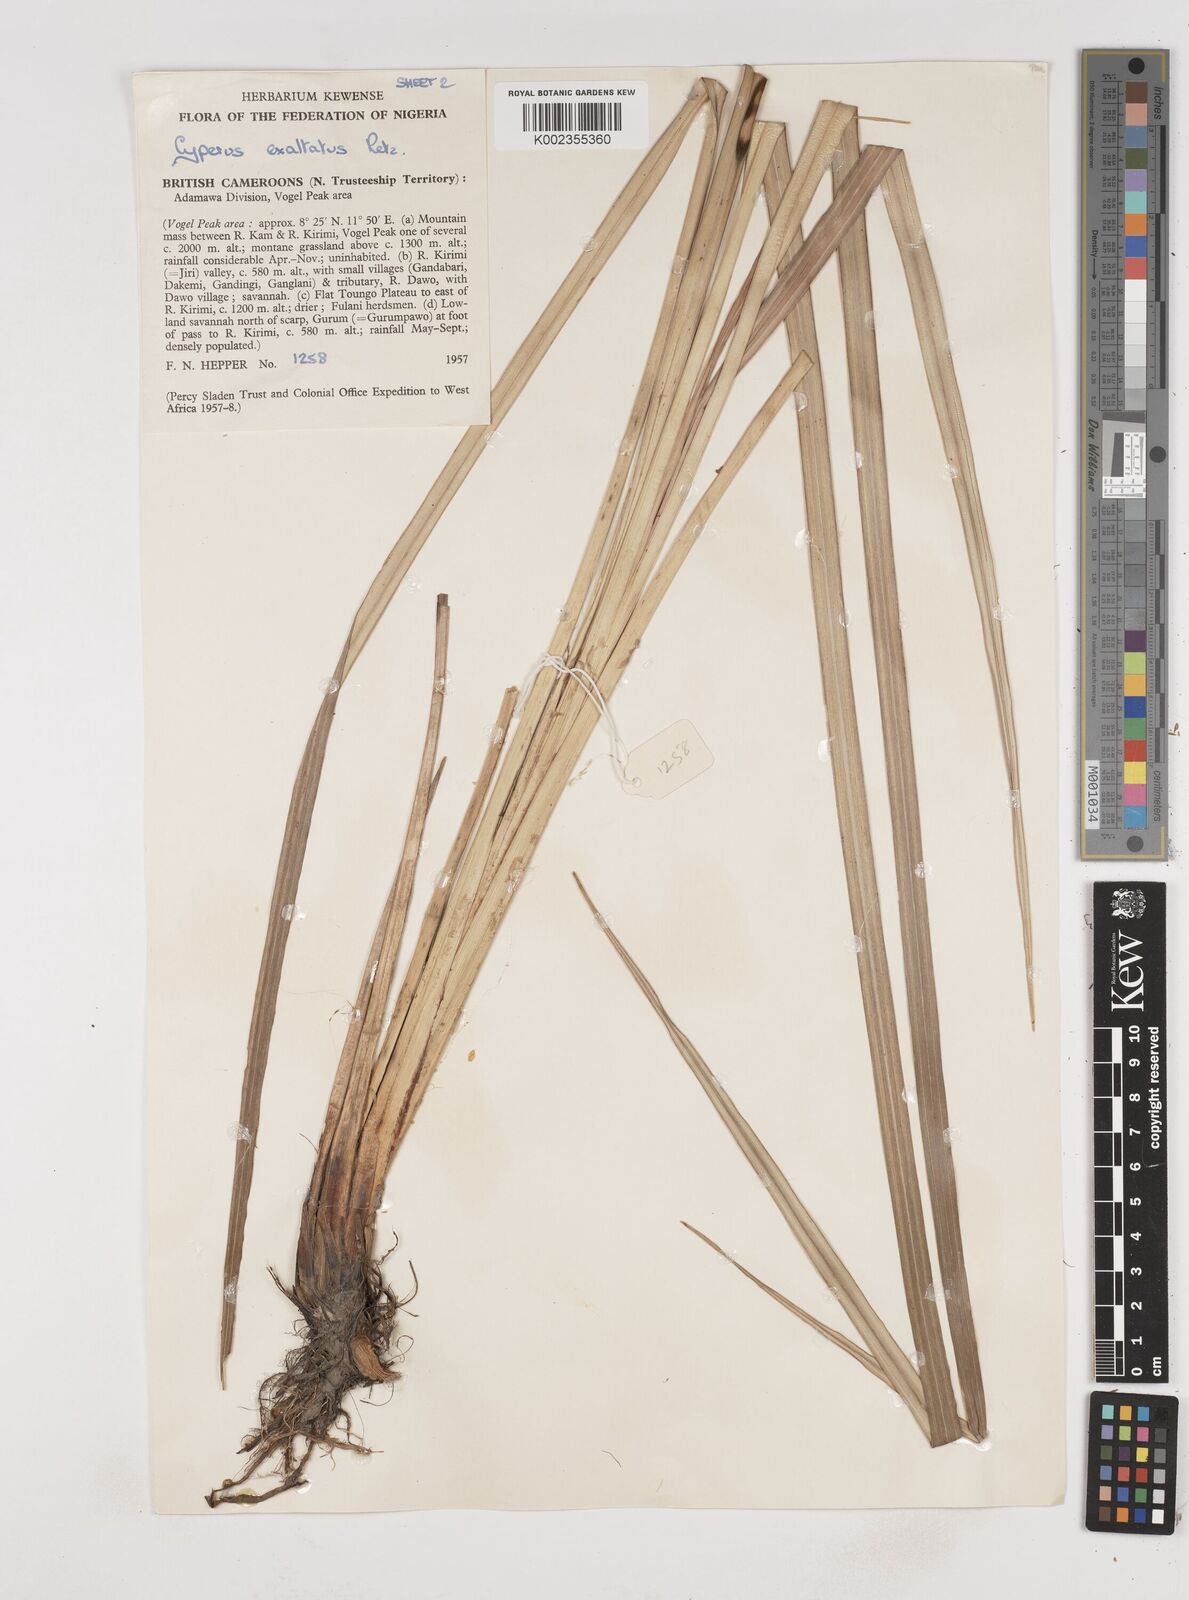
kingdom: Plantae
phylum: Tracheophyta
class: Liliopsida
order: Poales
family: Cyperaceae
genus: Cyperus
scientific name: Cyperus exaltatus
